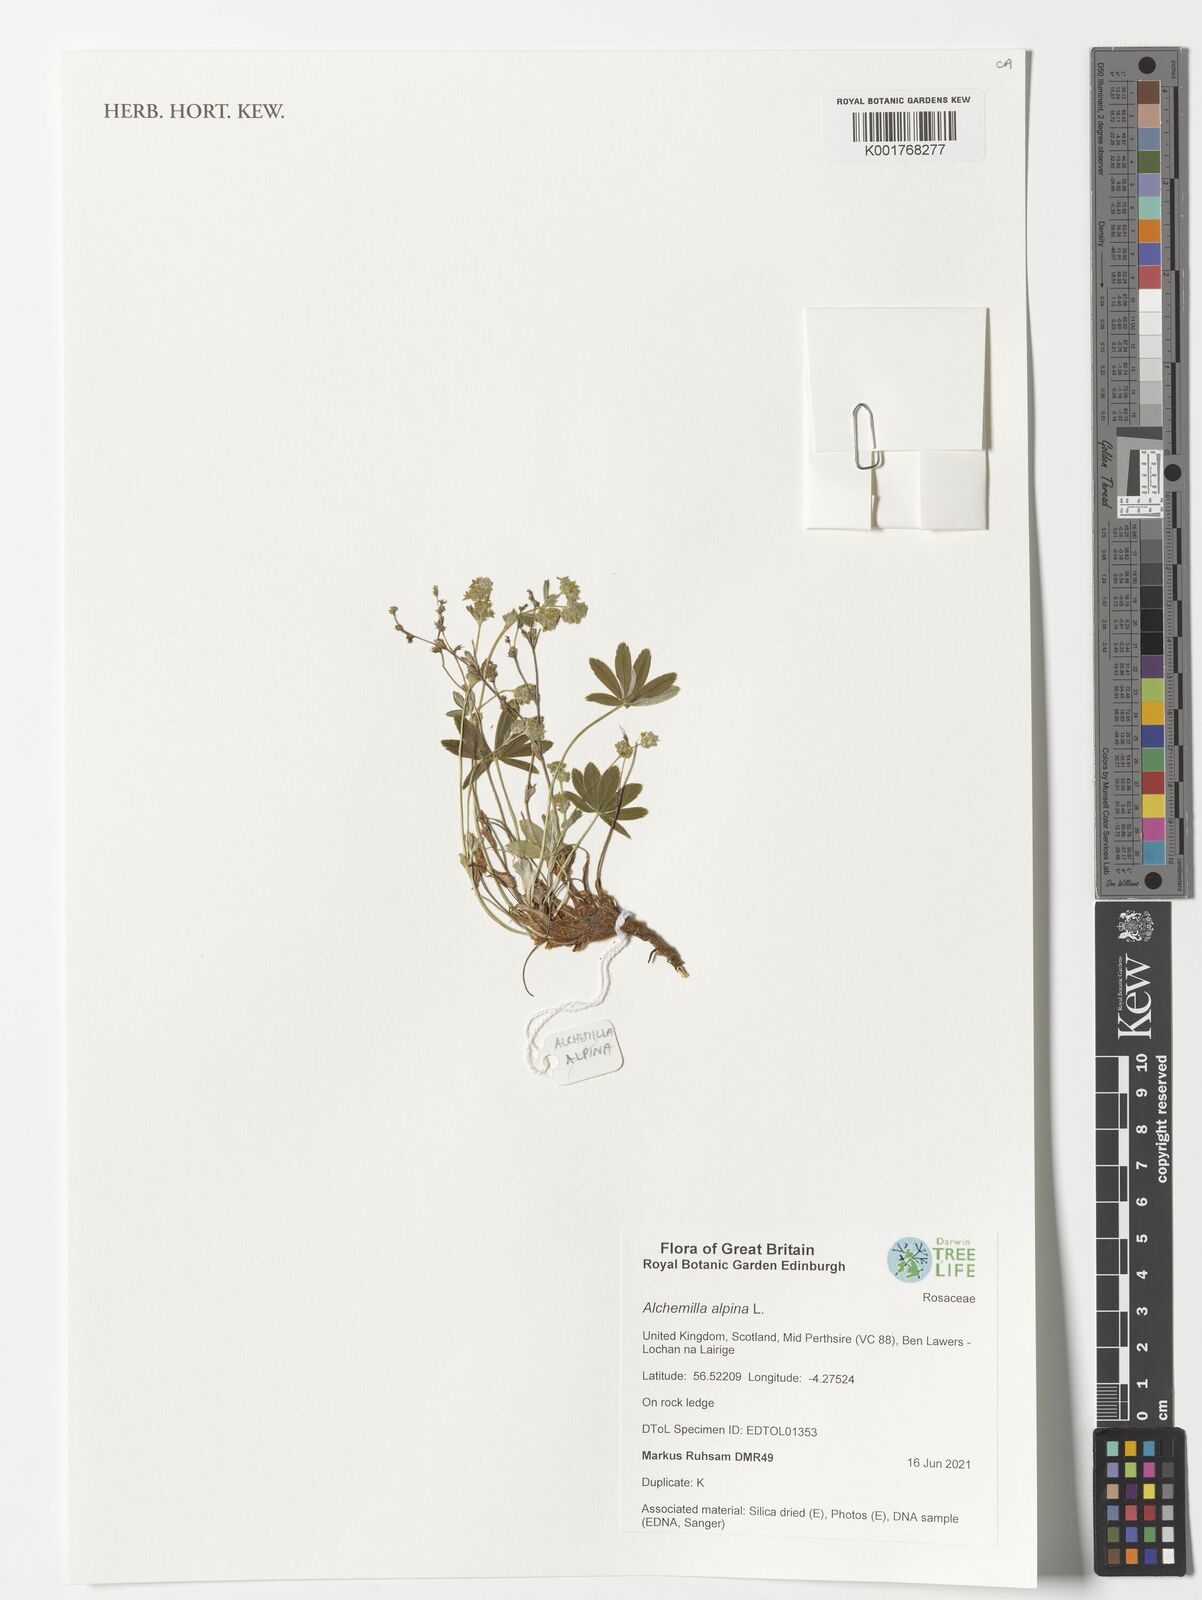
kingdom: Plantae
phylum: Tracheophyta
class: Magnoliopsida
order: Rosales
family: Rosaceae
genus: Alchemilla
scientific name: Alchemilla alpina
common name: Alpine lady's-mantle
